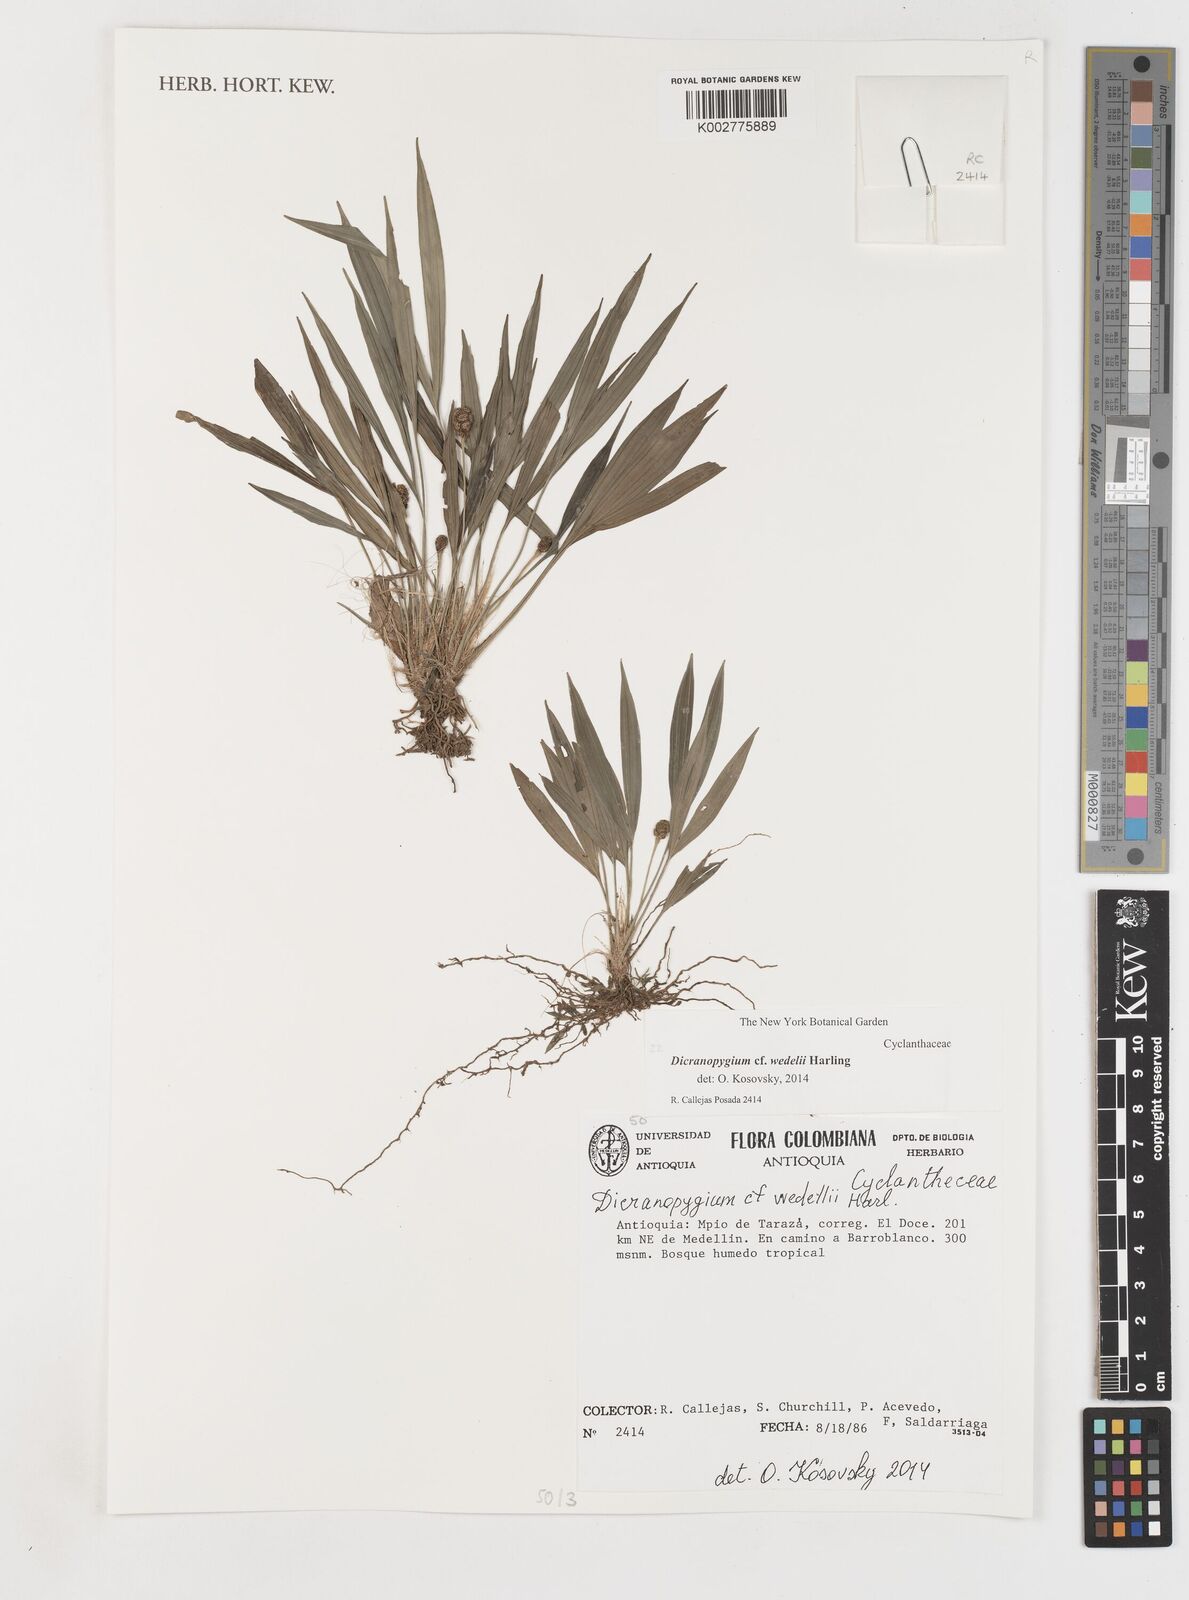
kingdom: Plantae
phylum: Tracheophyta
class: Liliopsida
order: Pandanales
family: Cyclanthaceae
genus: Dicranopygium
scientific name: Dicranopygium wedelii
